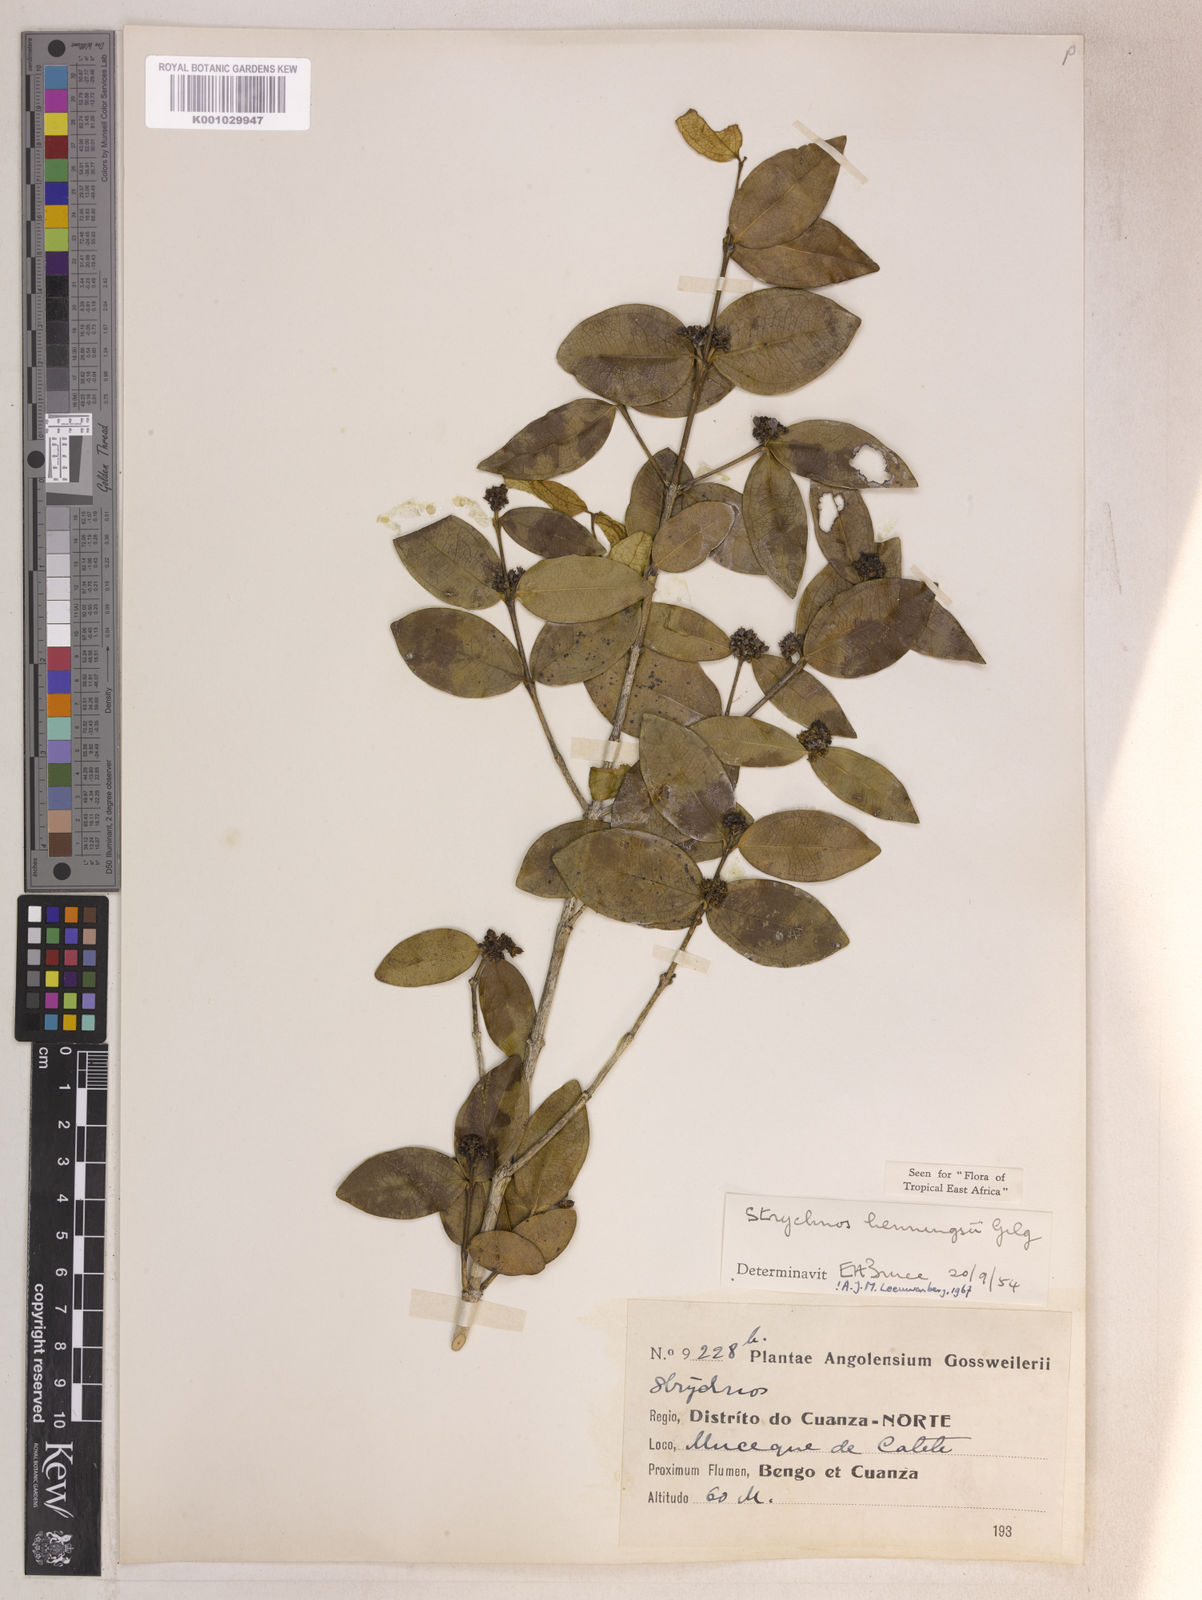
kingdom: Plantae
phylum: Tracheophyta
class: Magnoliopsida
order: Gentianales
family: Loganiaceae
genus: Strychnos
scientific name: Strychnos henningsii
